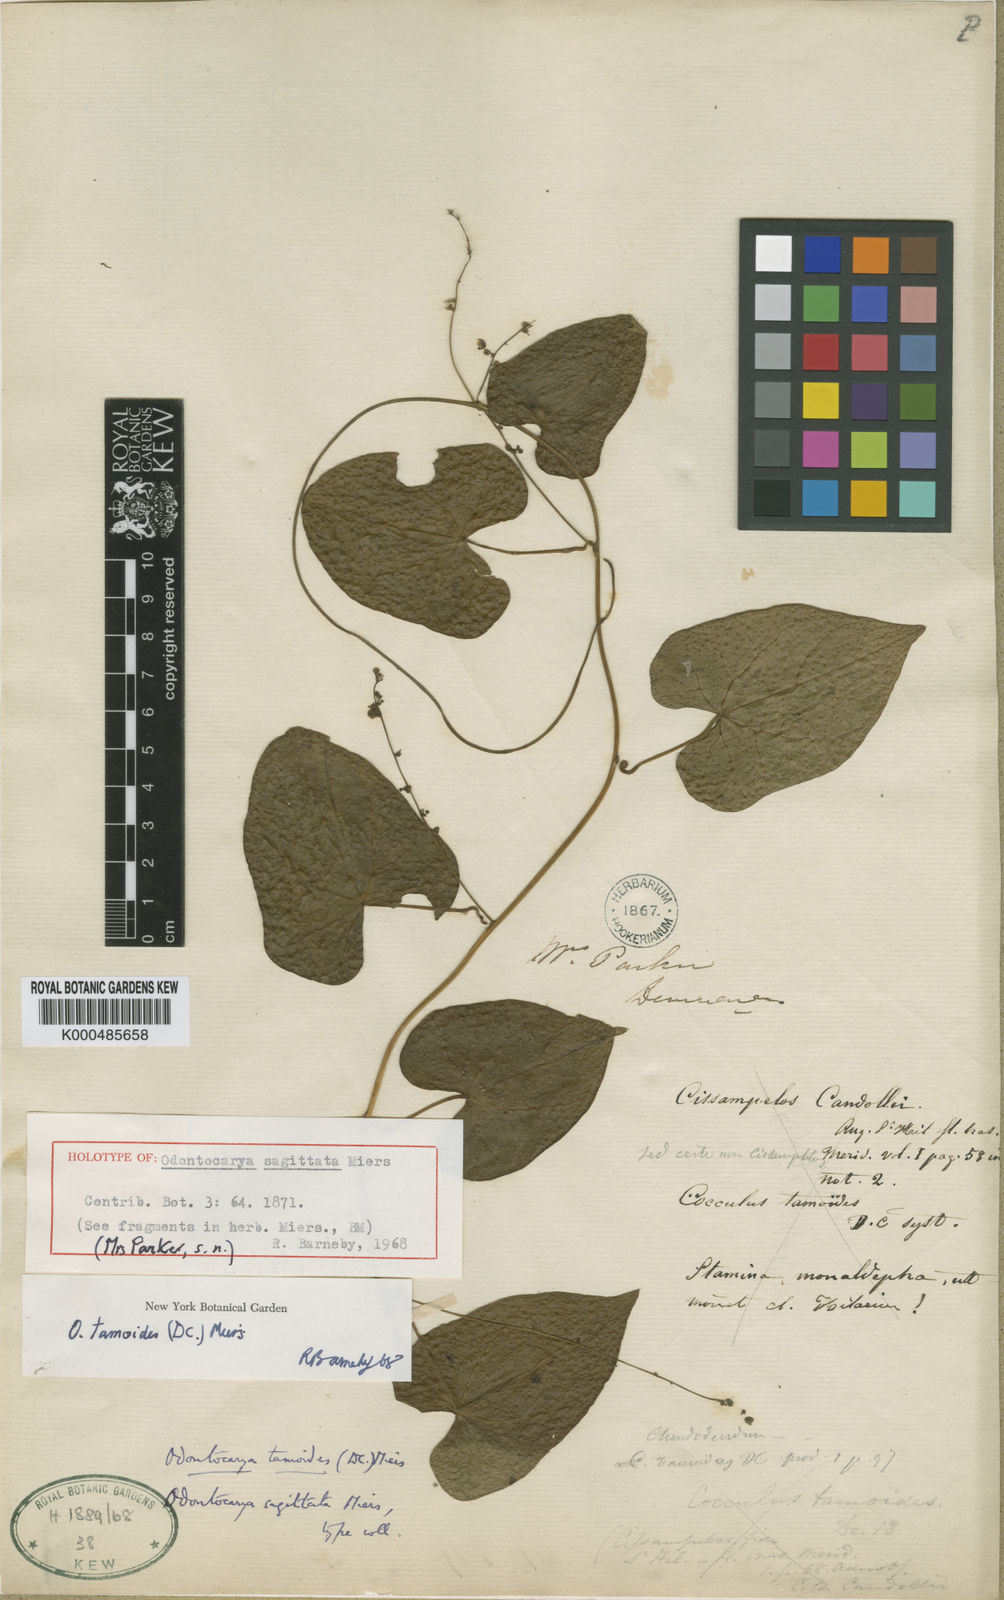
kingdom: Plantae
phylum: Tracheophyta
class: Magnoliopsida
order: Ranunculales
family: Menispermaceae
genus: Odontocarya
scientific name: Odontocarya tamoides
